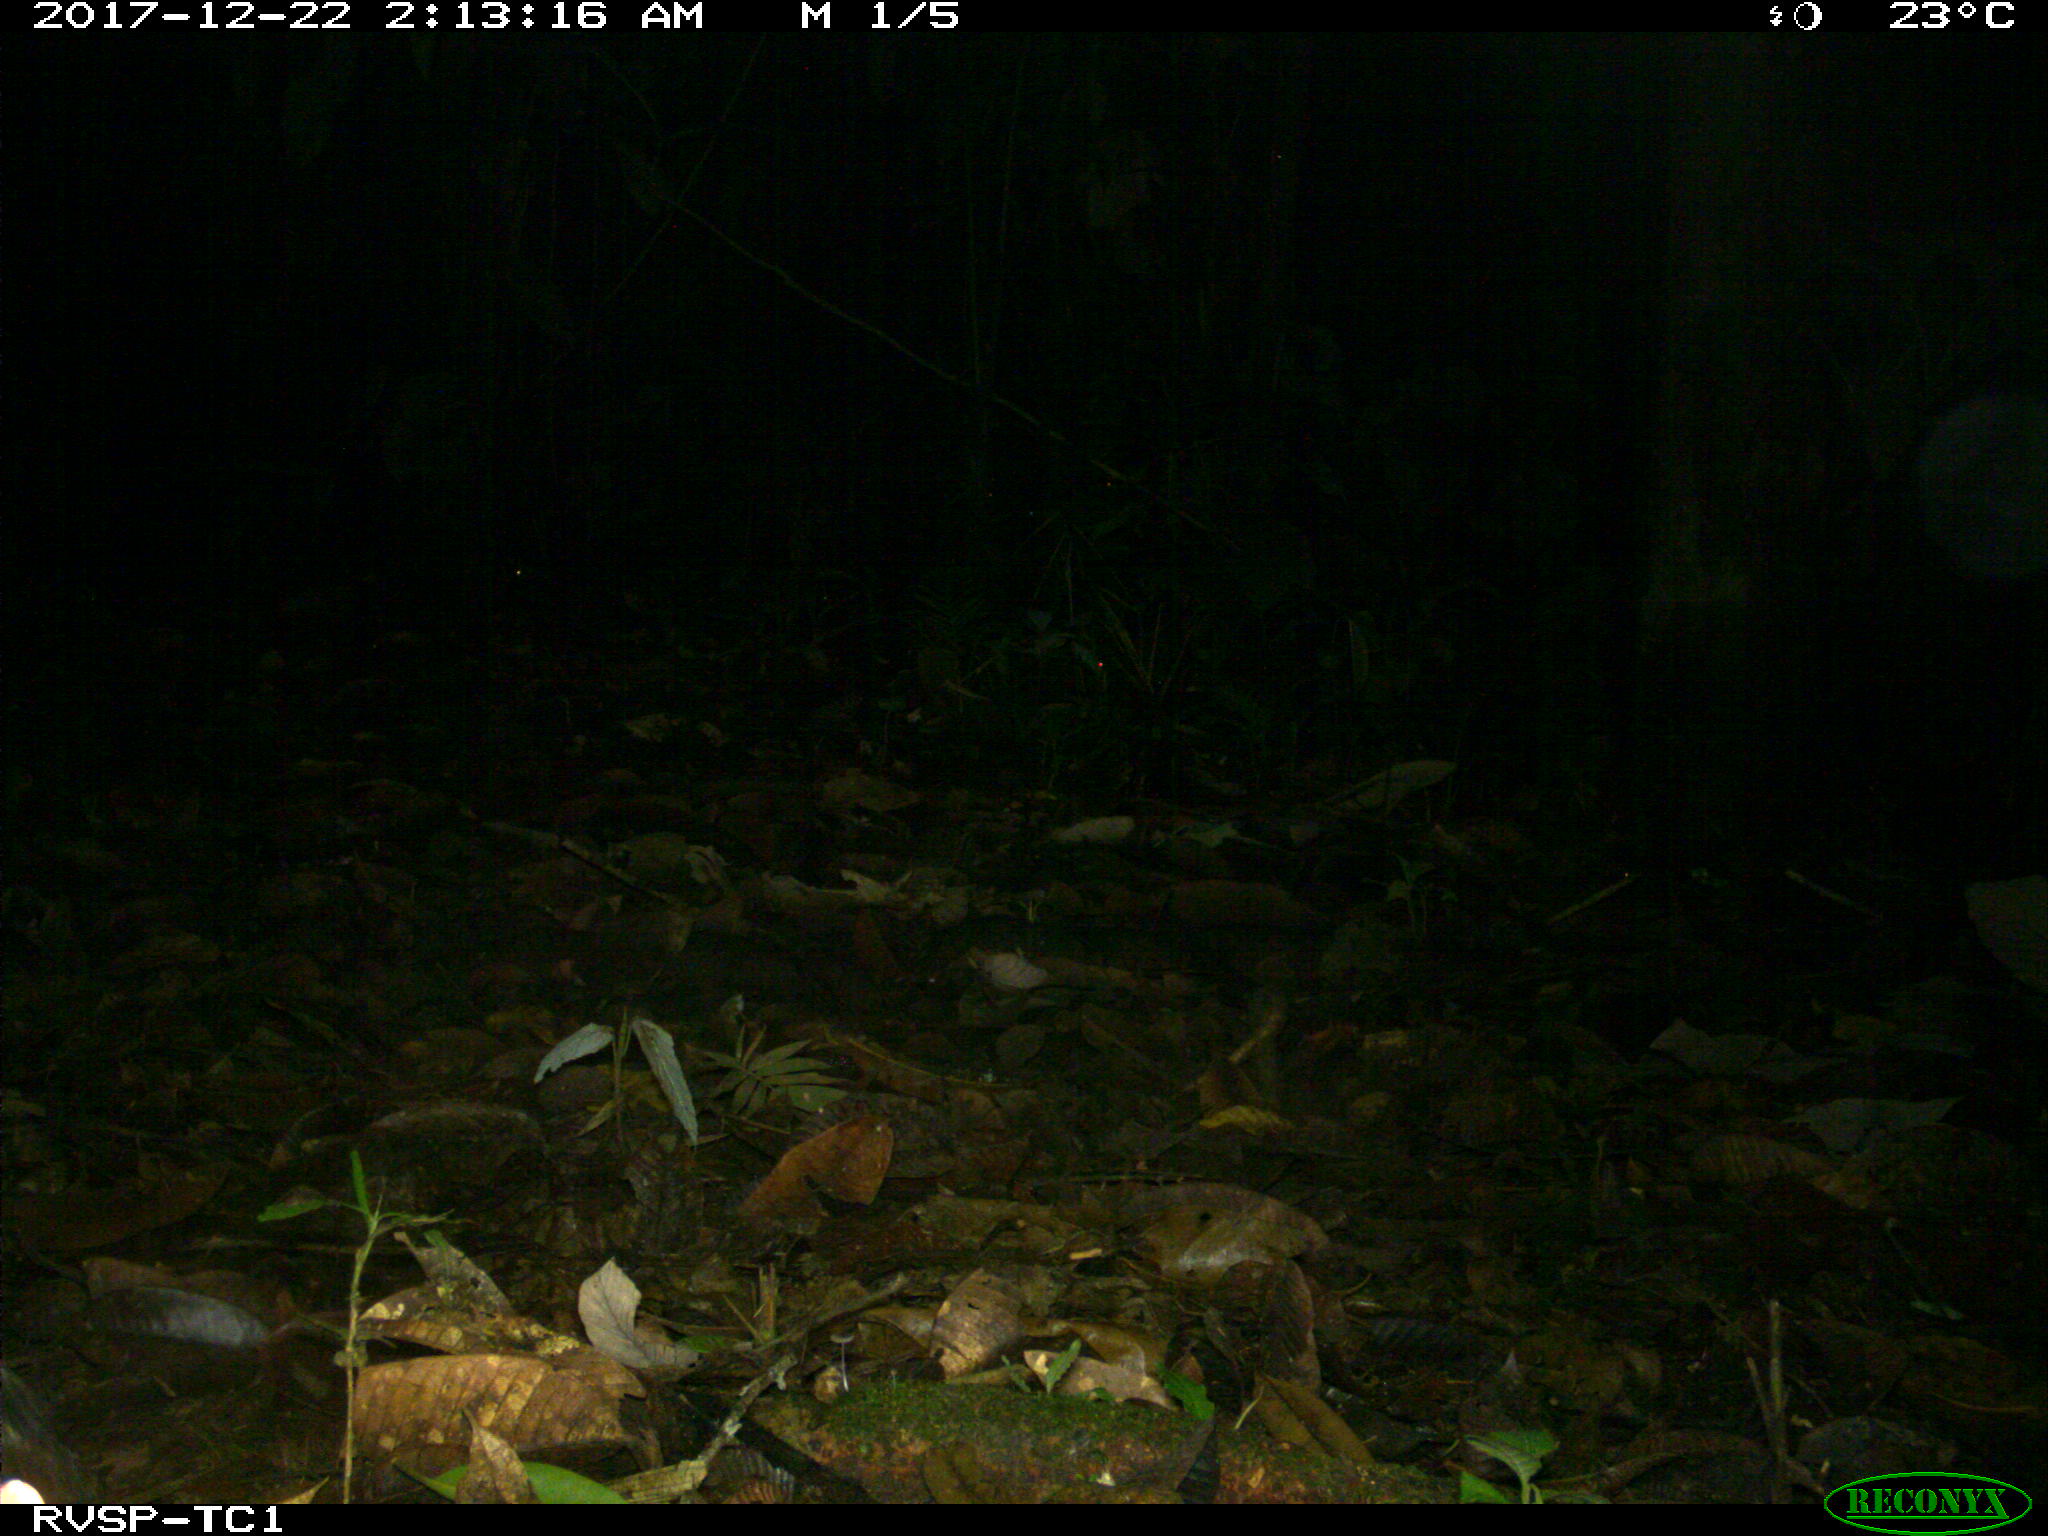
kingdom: Animalia
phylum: Chordata
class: Mammalia
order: Rodentia
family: Dasyproctidae
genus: Dasyprocta
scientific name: Dasyprocta punctata
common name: Central american agouti
